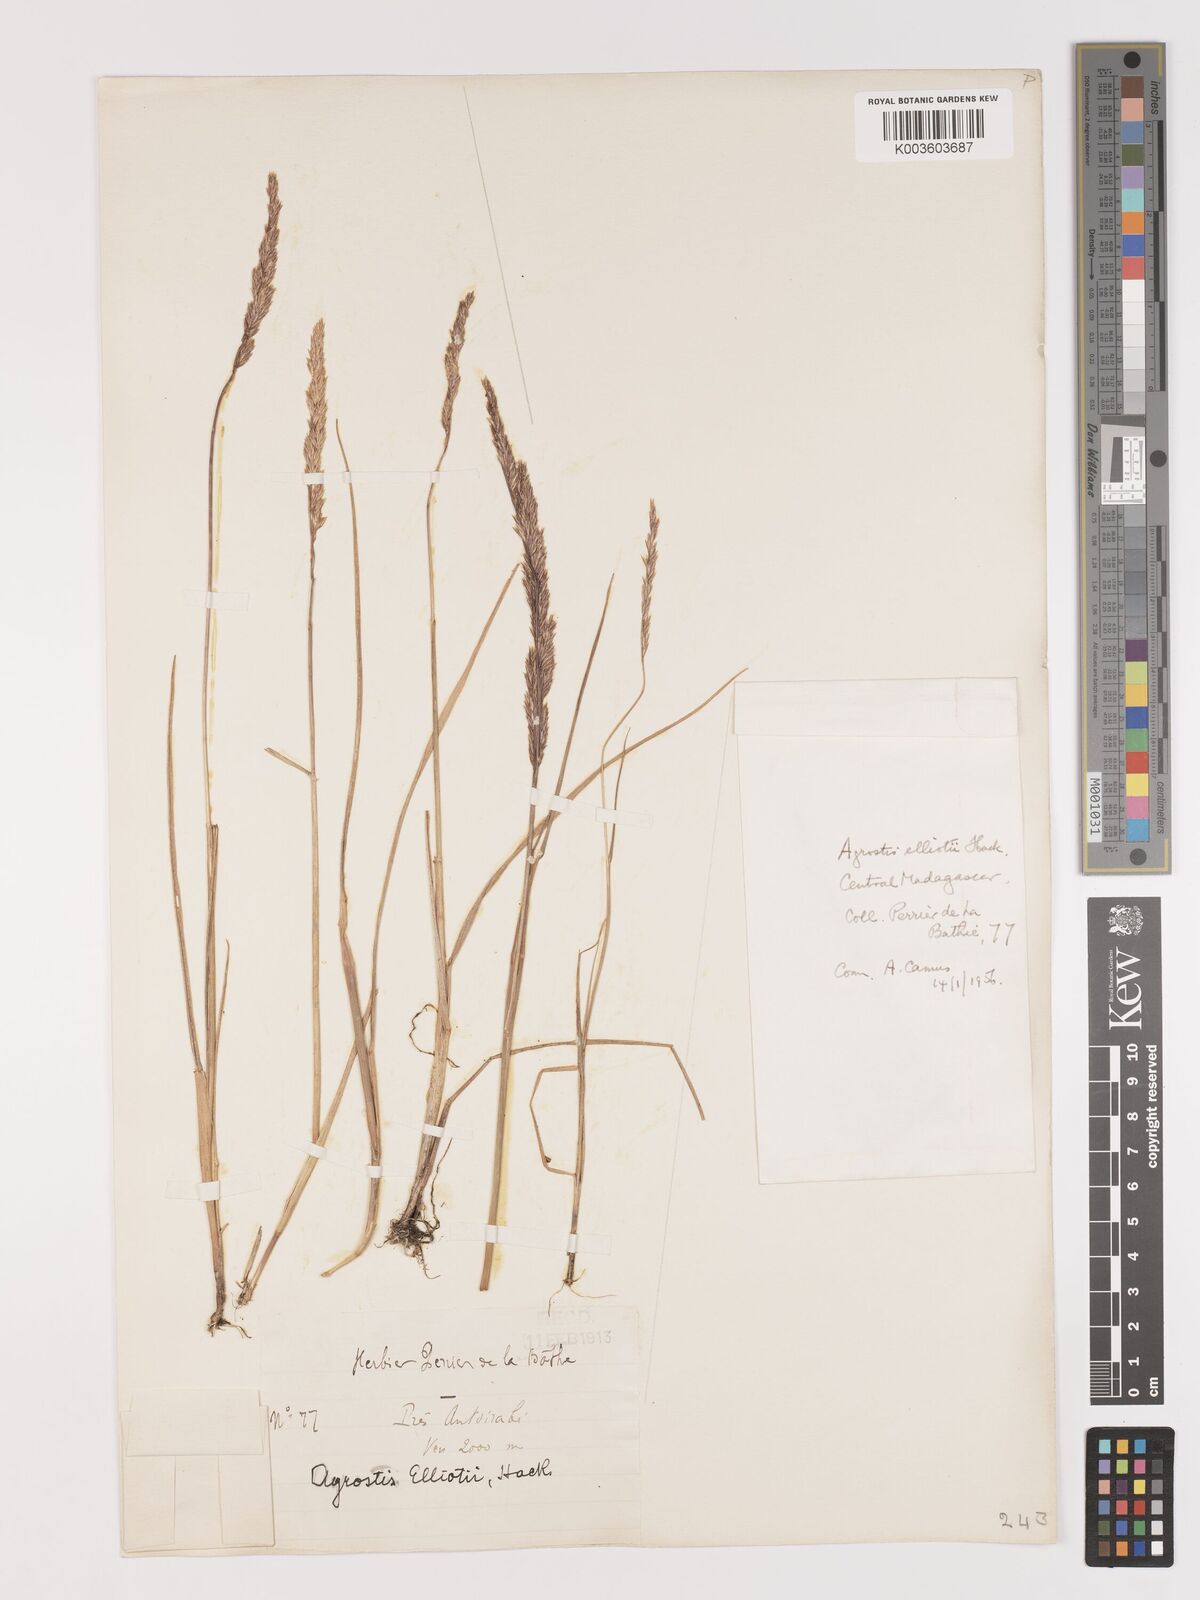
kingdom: Plantae
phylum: Tracheophyta
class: Liliopsida
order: Poales
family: Poaceae
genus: Agrostis
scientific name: Agrostis elliotii
